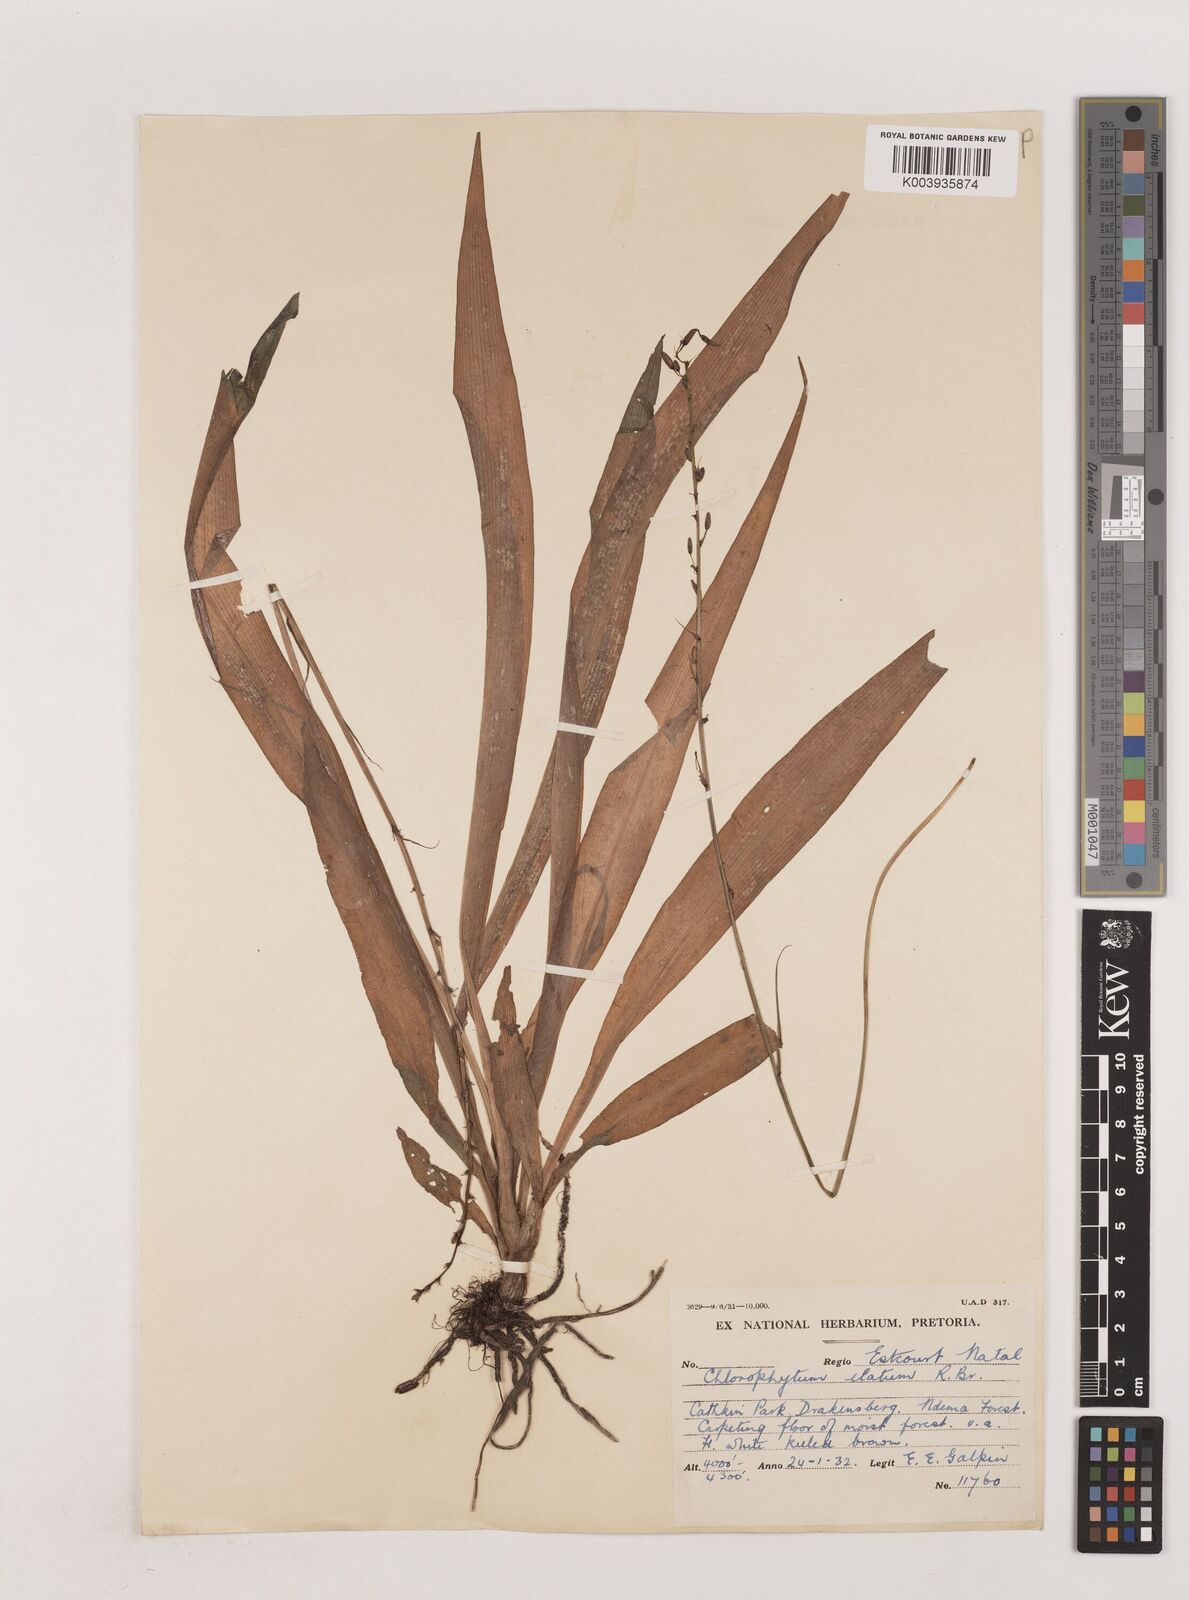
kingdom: Plantae
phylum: Tracheophyta
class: Liliopsida
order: Asparagales
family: Asparagaceae
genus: Chlorophytum
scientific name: Chlorophytum comosum
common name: Spider plant
